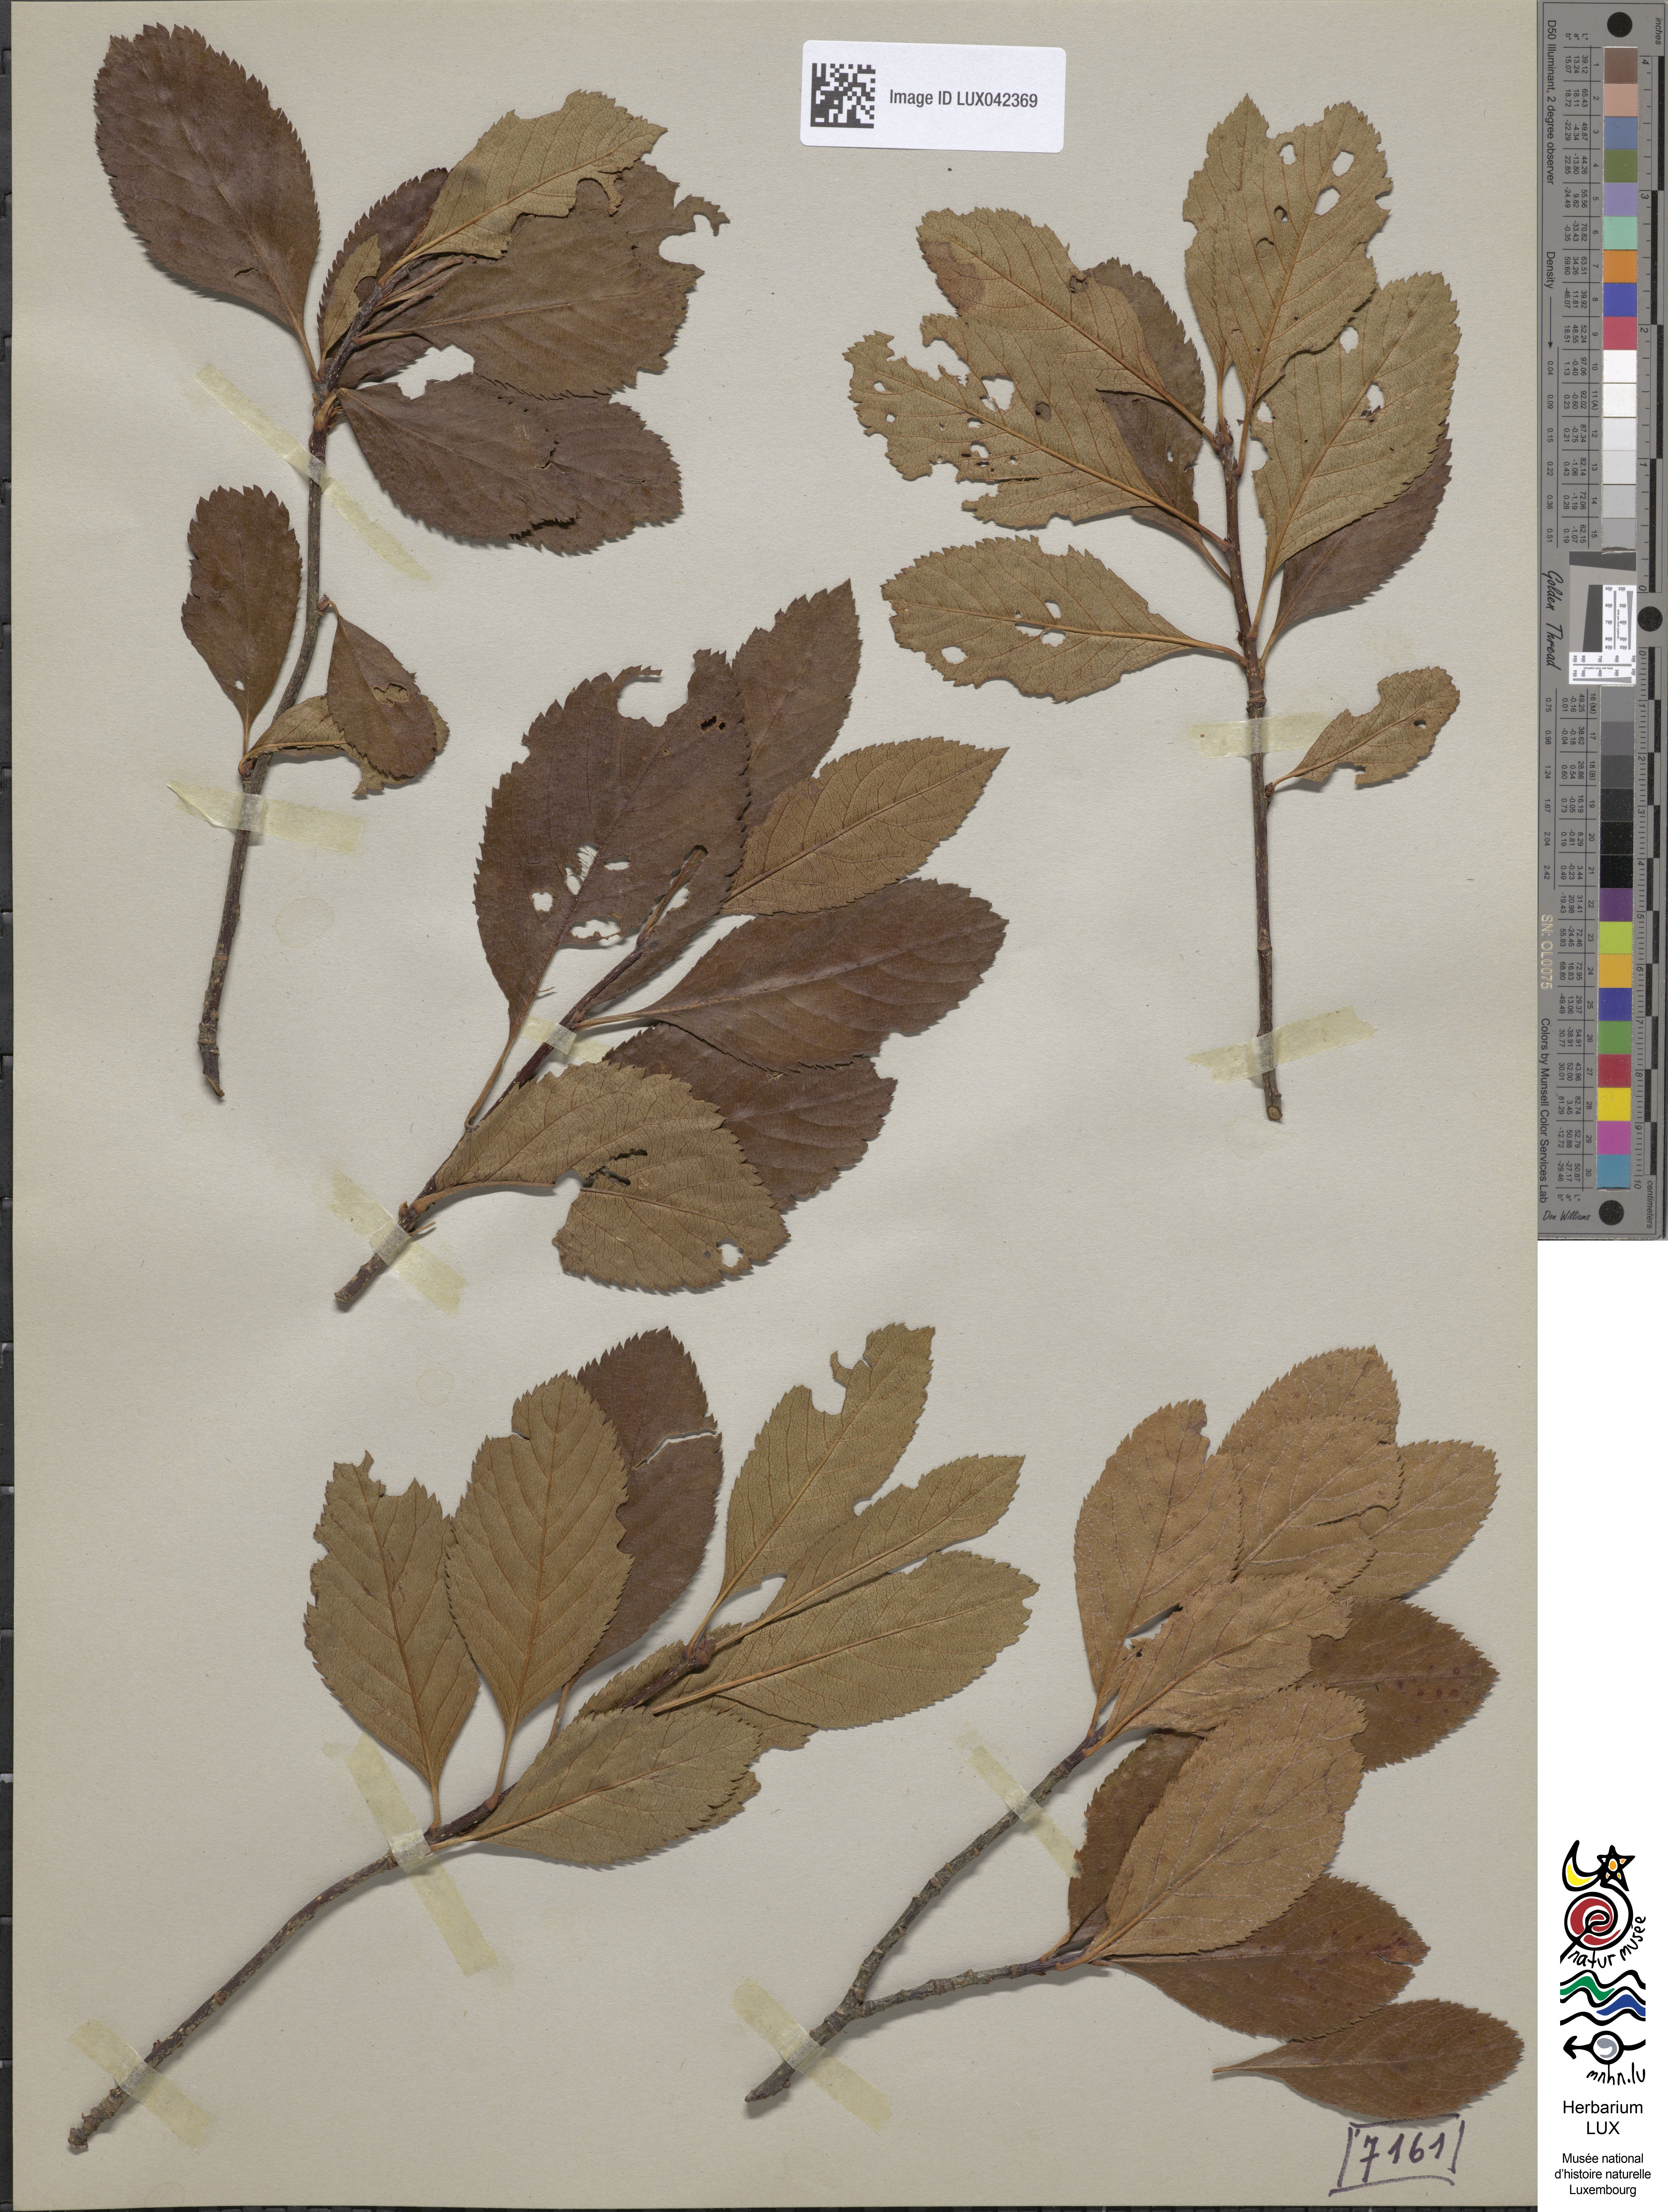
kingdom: Plantae
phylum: Tracheophyta
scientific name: Tracheophyta
